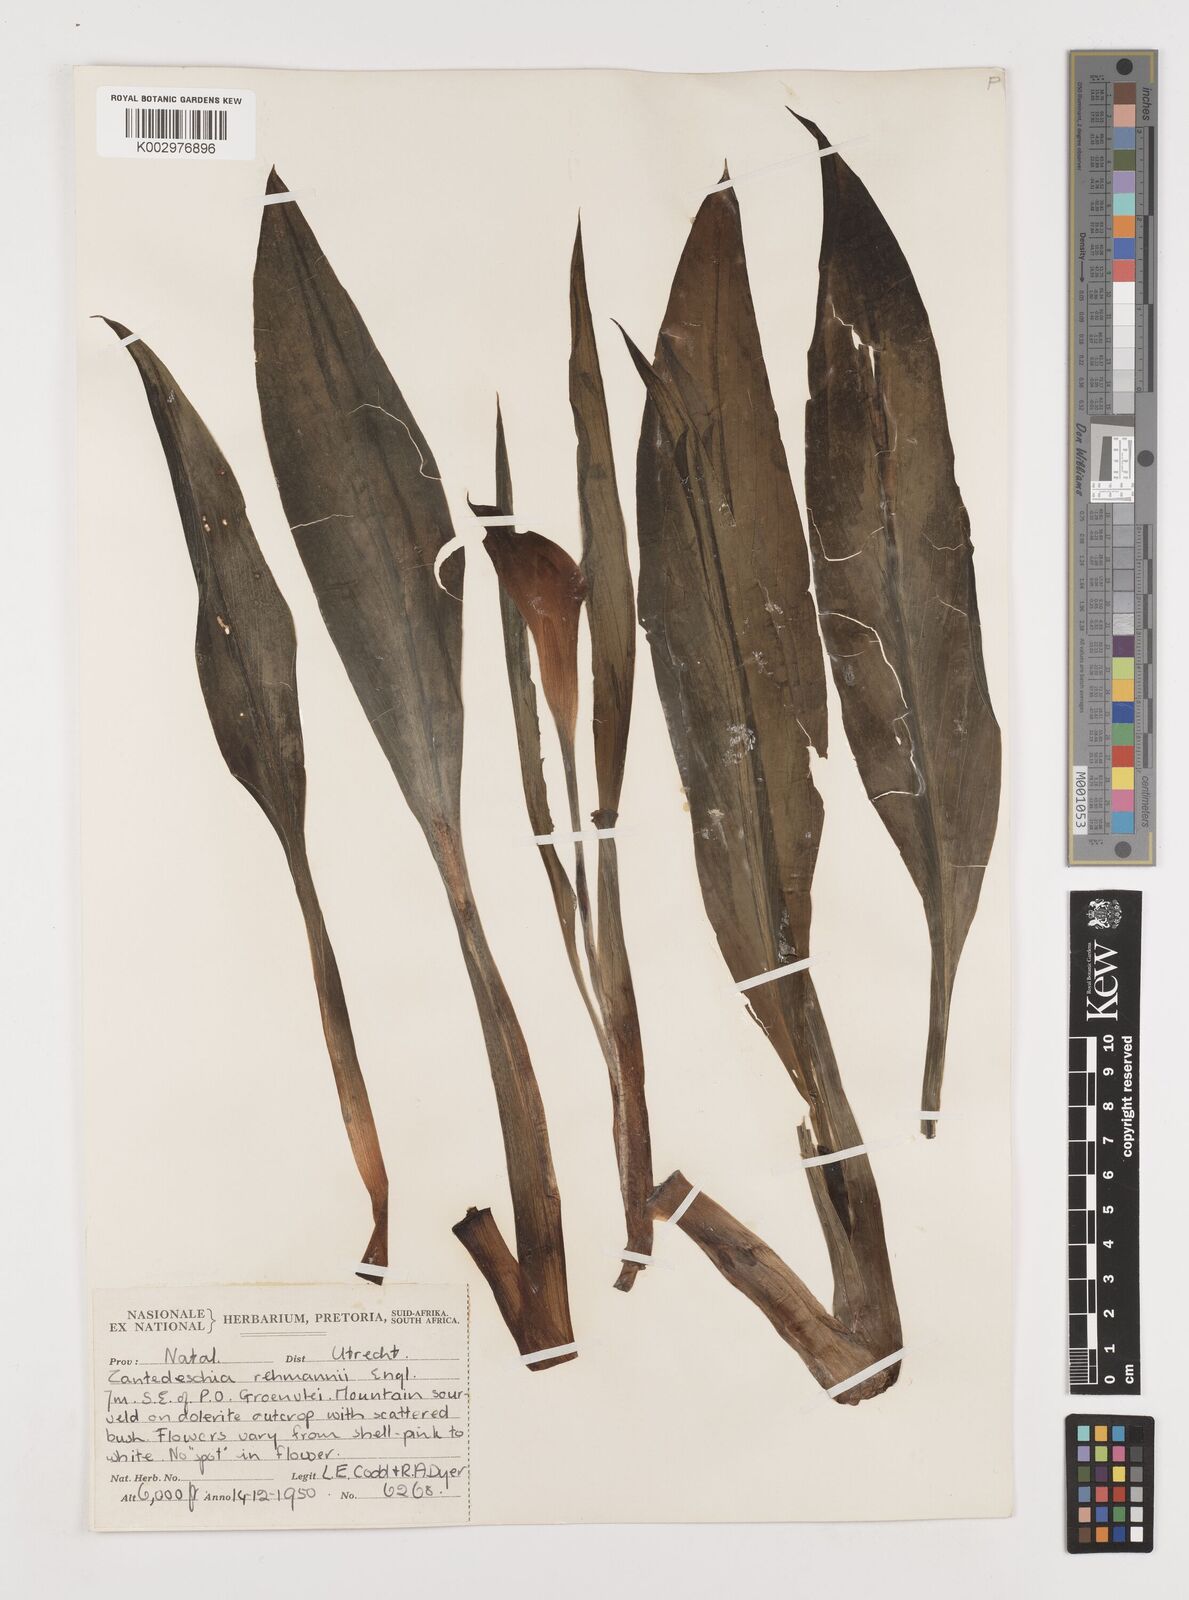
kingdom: Plantae
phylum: Tracheophyta
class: Liliopsida
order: Alismatales
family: Araceae
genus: Zantedeschia
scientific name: Zantedeschia rehmannii
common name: Red calla
